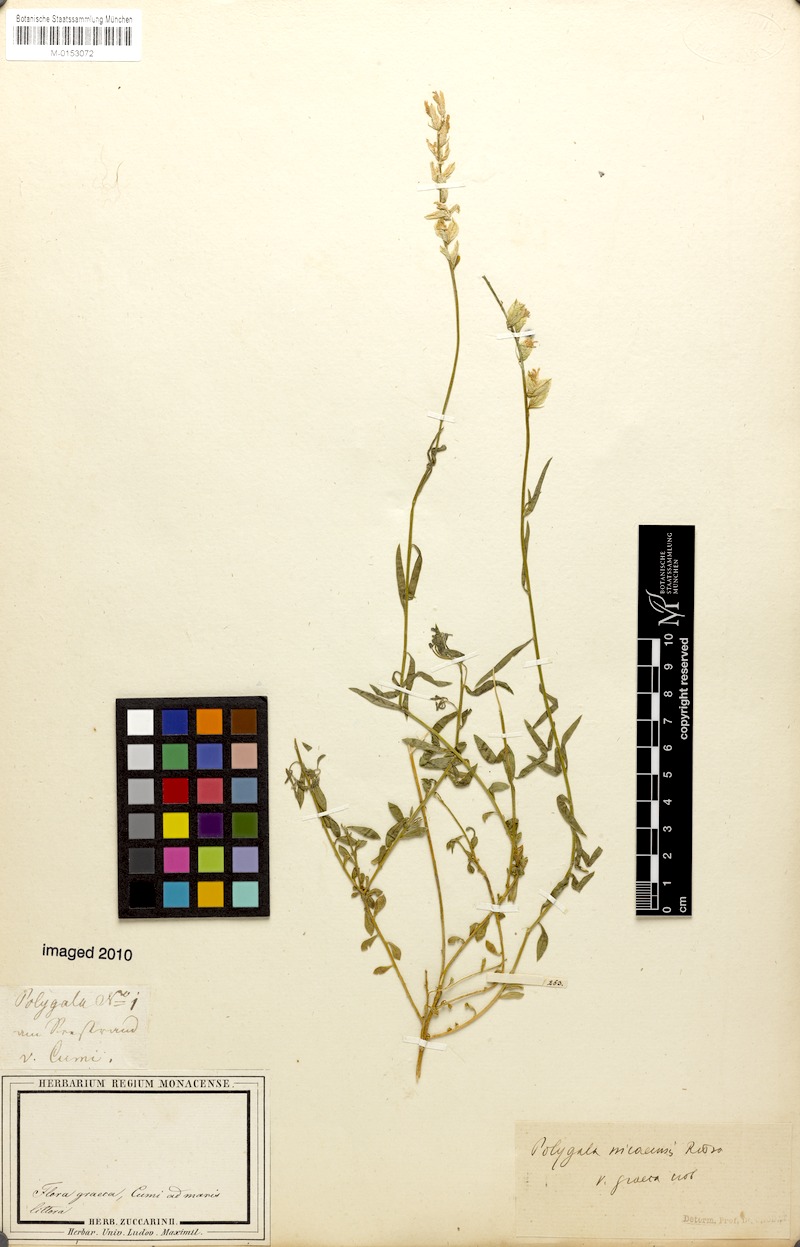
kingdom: Plantae
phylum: Tracheophyta
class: Magnoliopsida
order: Fabales
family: Polygalaceae
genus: Polygala
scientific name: Polygala nicaeensis
